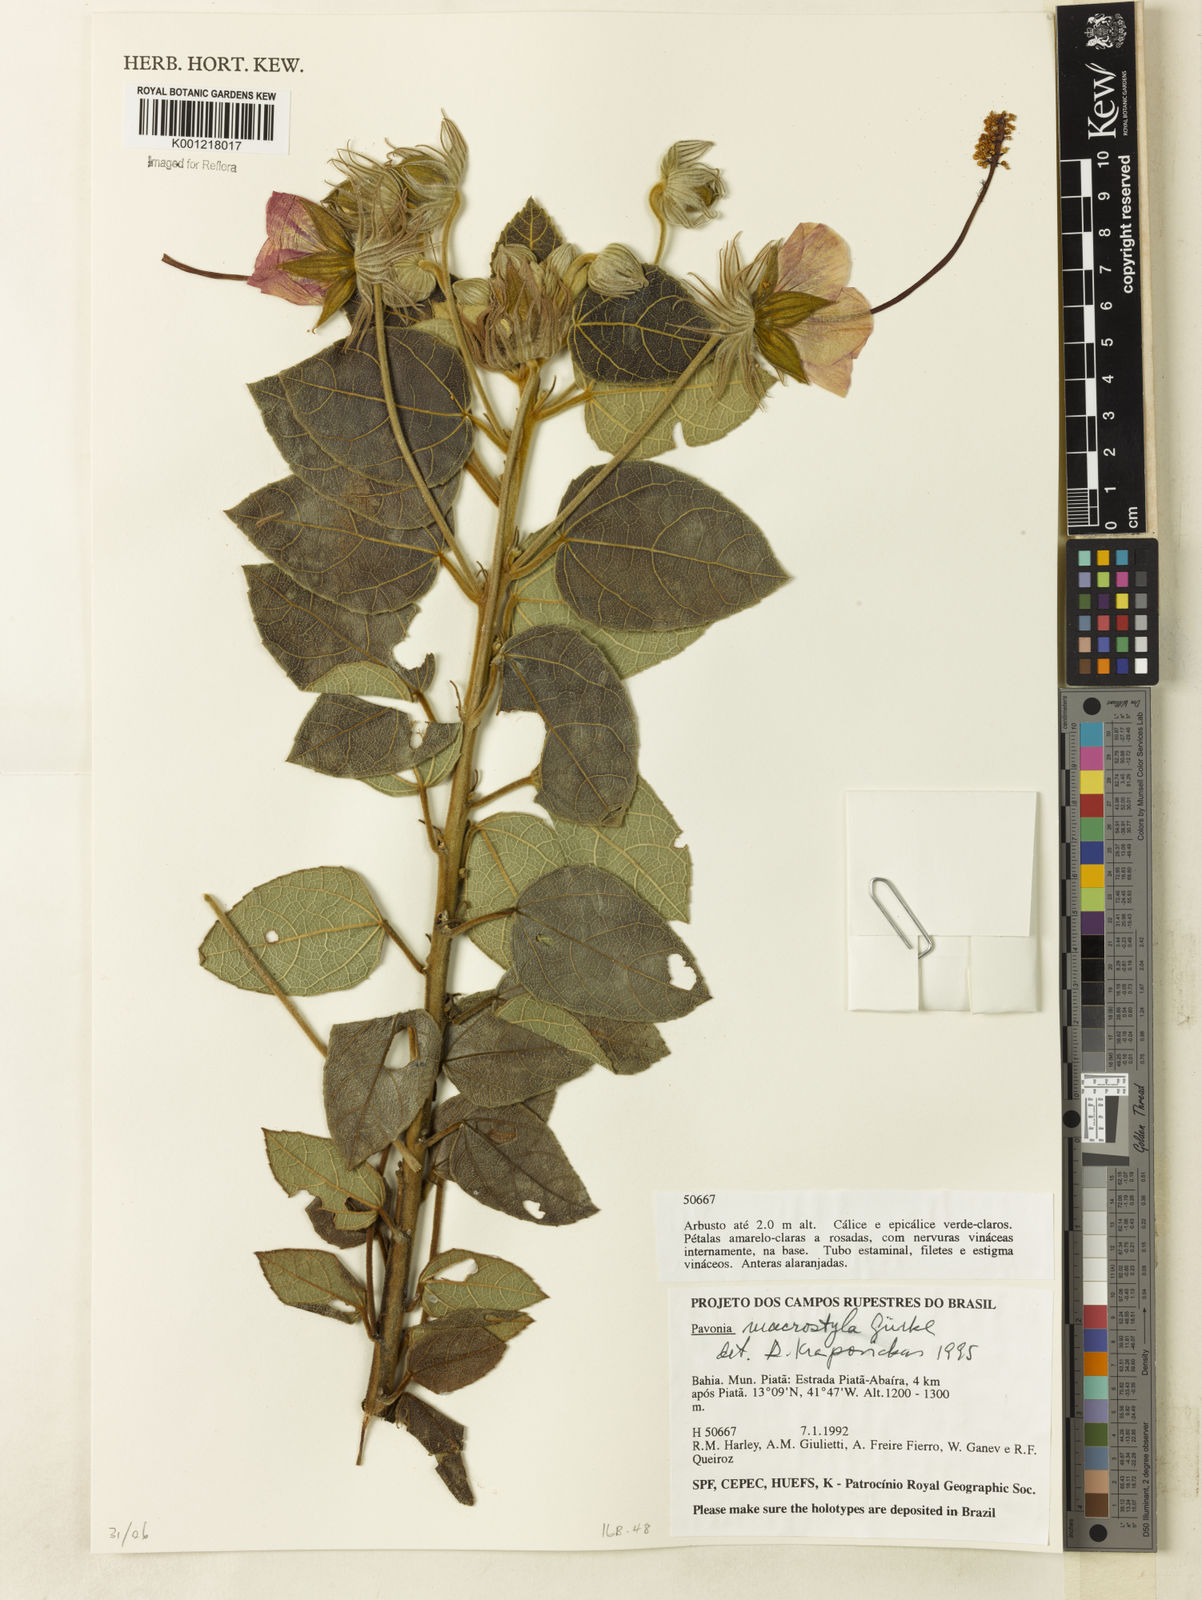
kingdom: Plantae
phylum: Tracheophyta
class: Magnoliopsida
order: Malvales
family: Malvaceae
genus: Pavonia
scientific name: Pavonia
